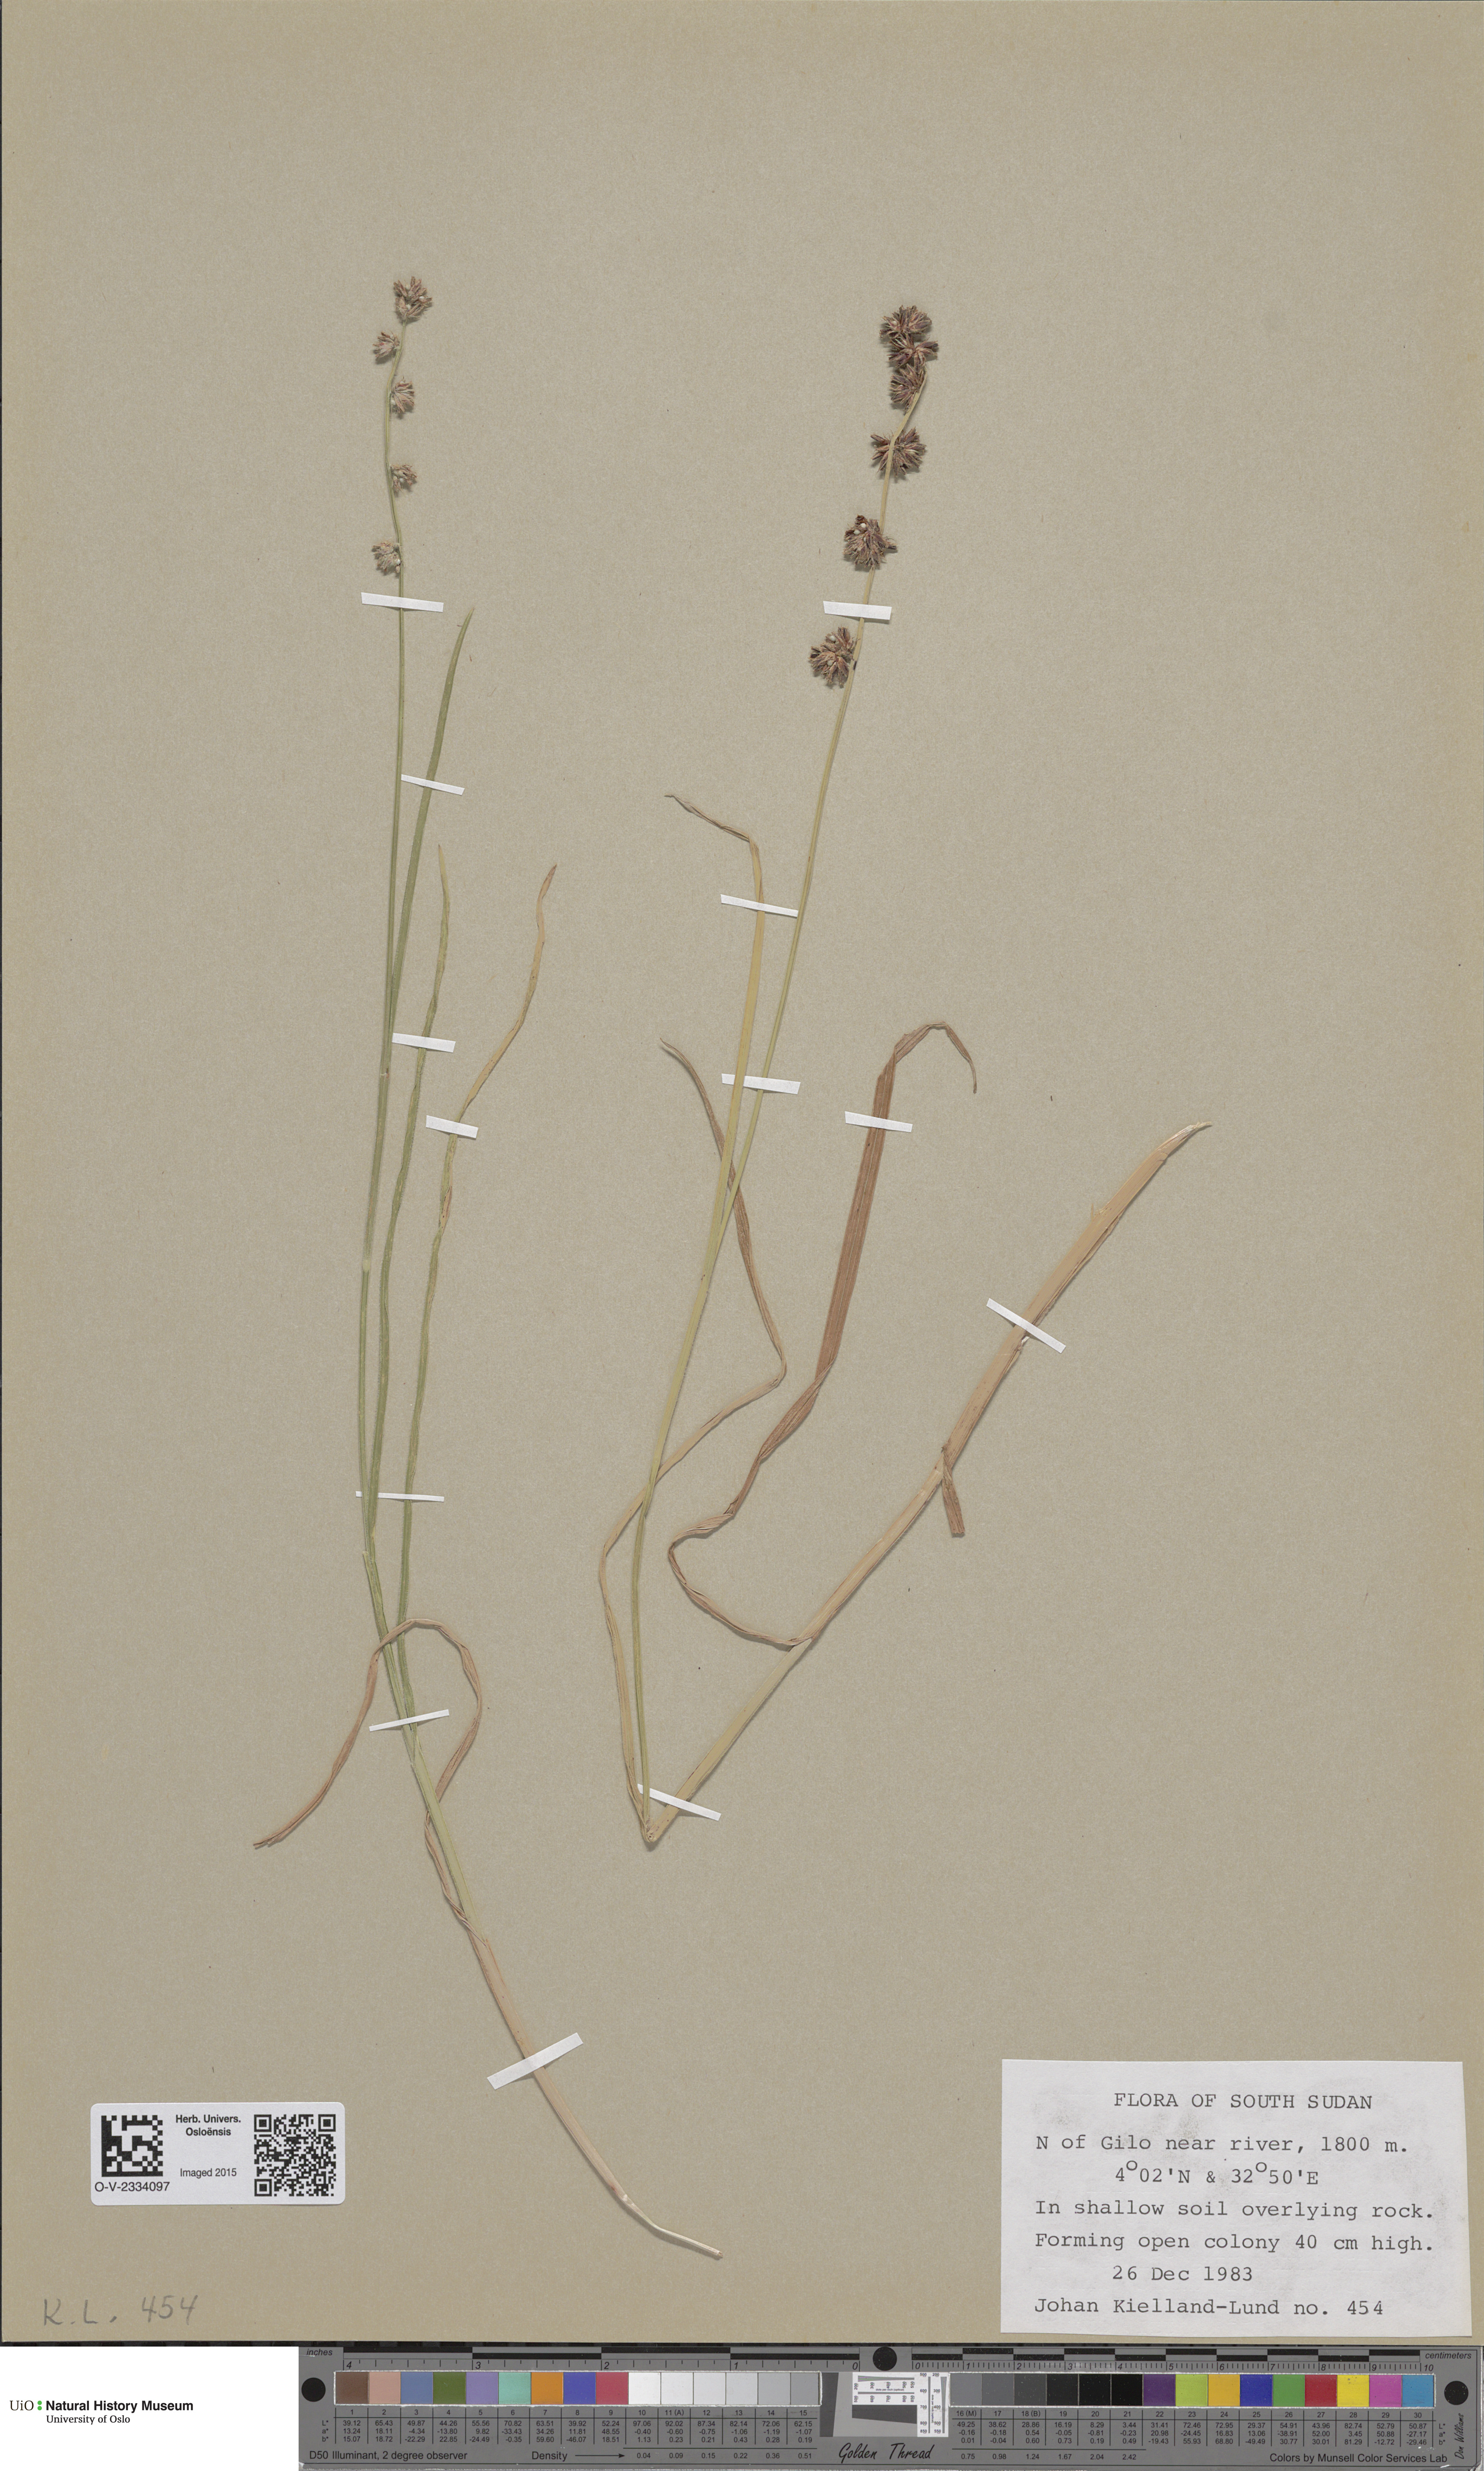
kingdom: Plantae
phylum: Tracheophyta
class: Liliopsida
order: Poales
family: Poaceae
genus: Alopecurus
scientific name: Alopecurus magellanicus
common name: Alpine foxtail
